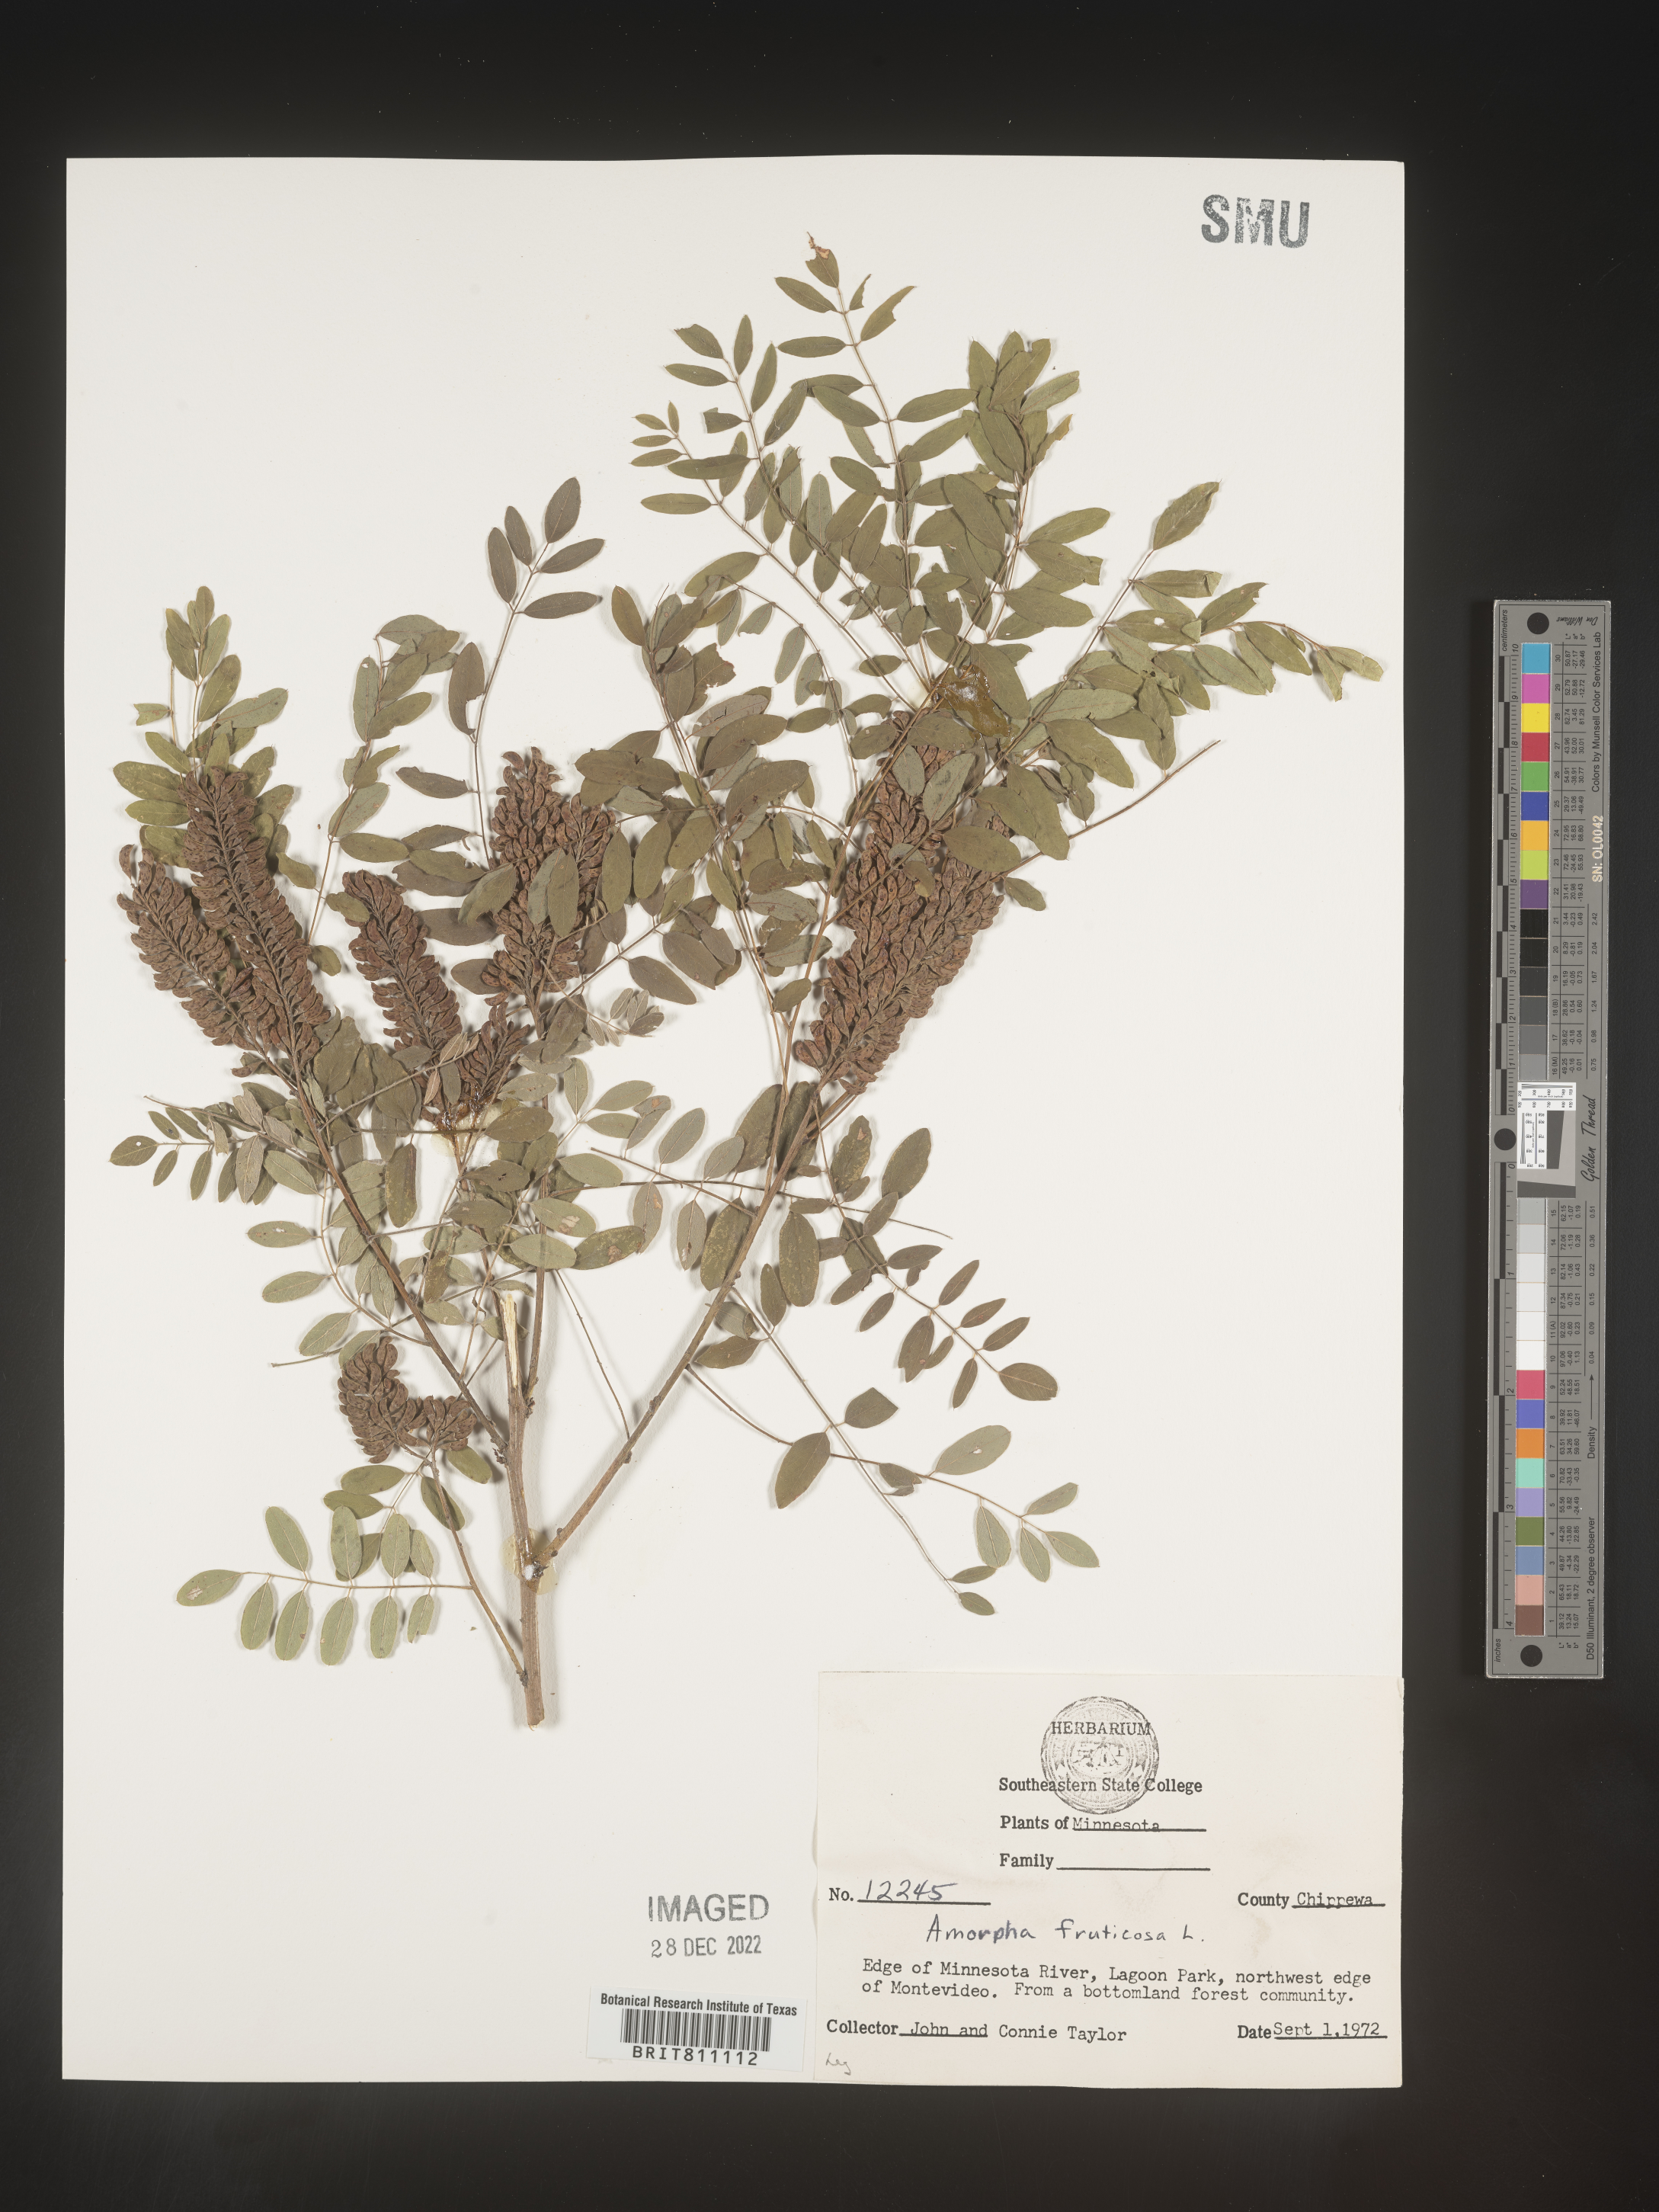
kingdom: Plantae
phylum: Tracheophyta
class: Magnoliopsida
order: Fabales
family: Fabaceae
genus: Amorpha
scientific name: Amorpha fruticosa
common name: False indigo
